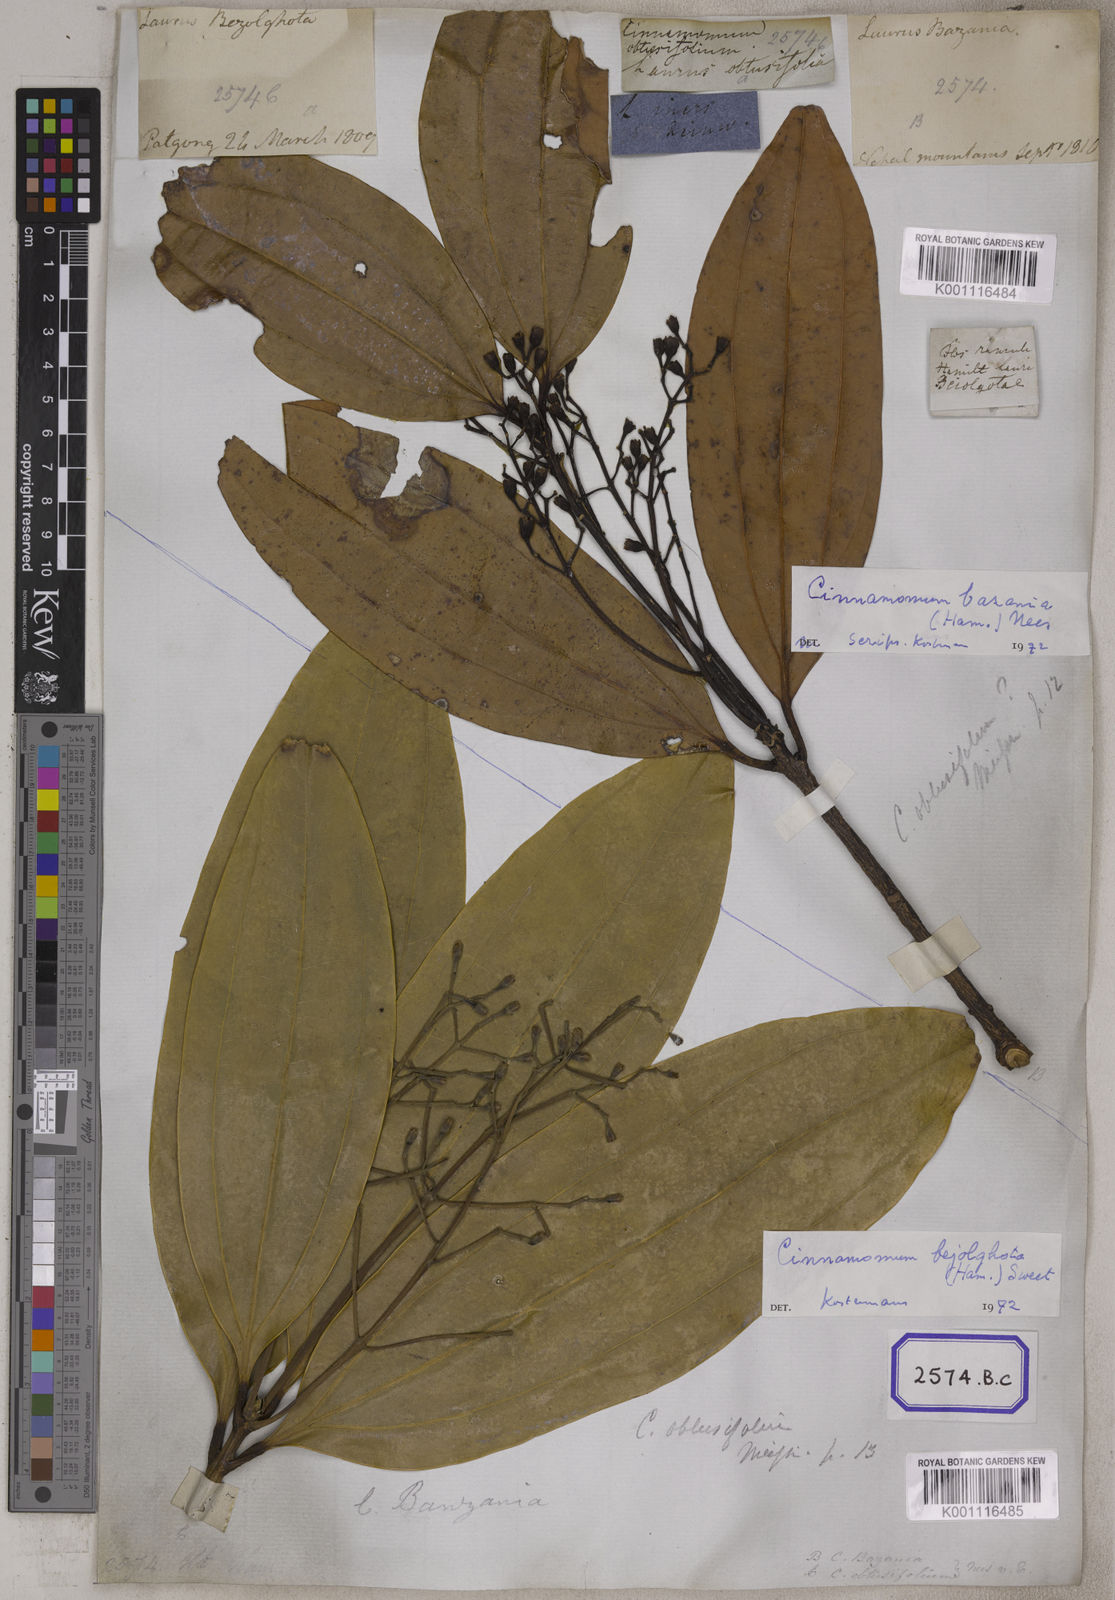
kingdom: Plantae
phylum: Tracheophyta
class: Magnoliopsida
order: Laurales
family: Lauraceae
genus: Cinnamomum
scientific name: Cinnamomum bejolghota
